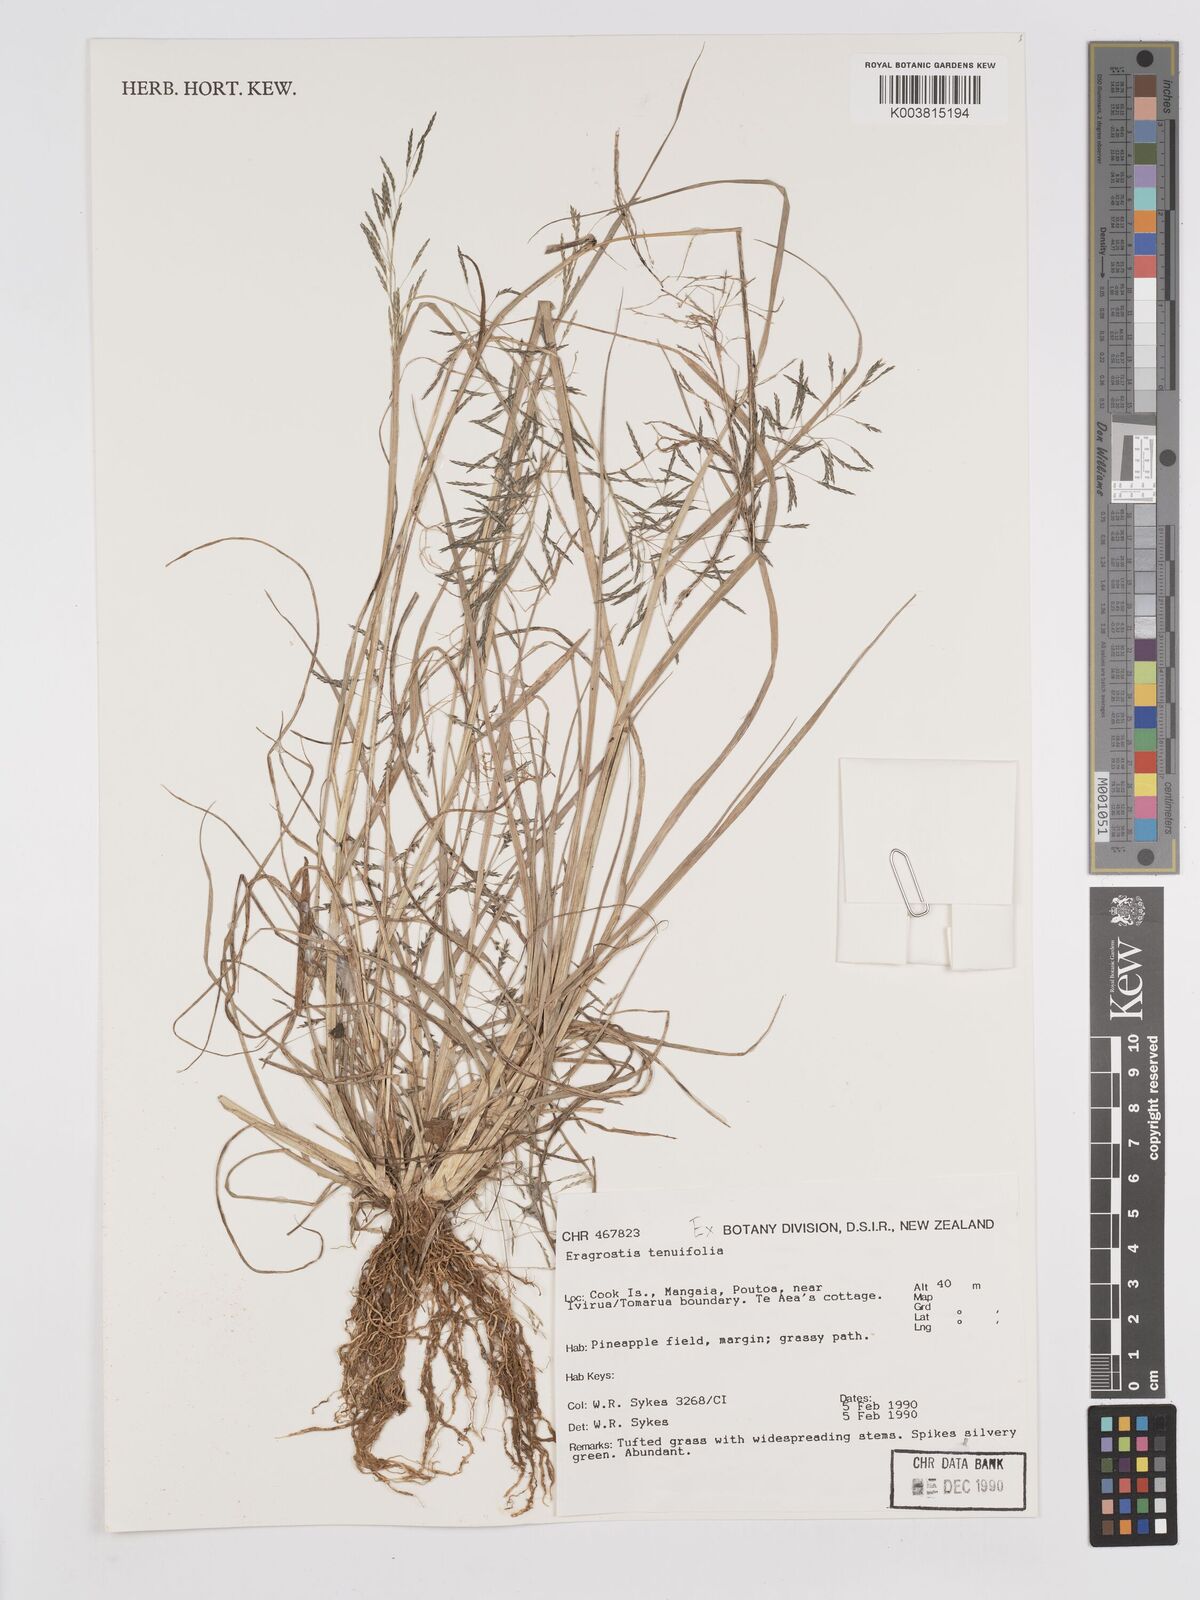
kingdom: Plantae
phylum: Tracheophyta
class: Liliopsida
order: Poales
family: Poaceae
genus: Eragrostis
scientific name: Eragrostis tenuifolia
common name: Elastic grass
